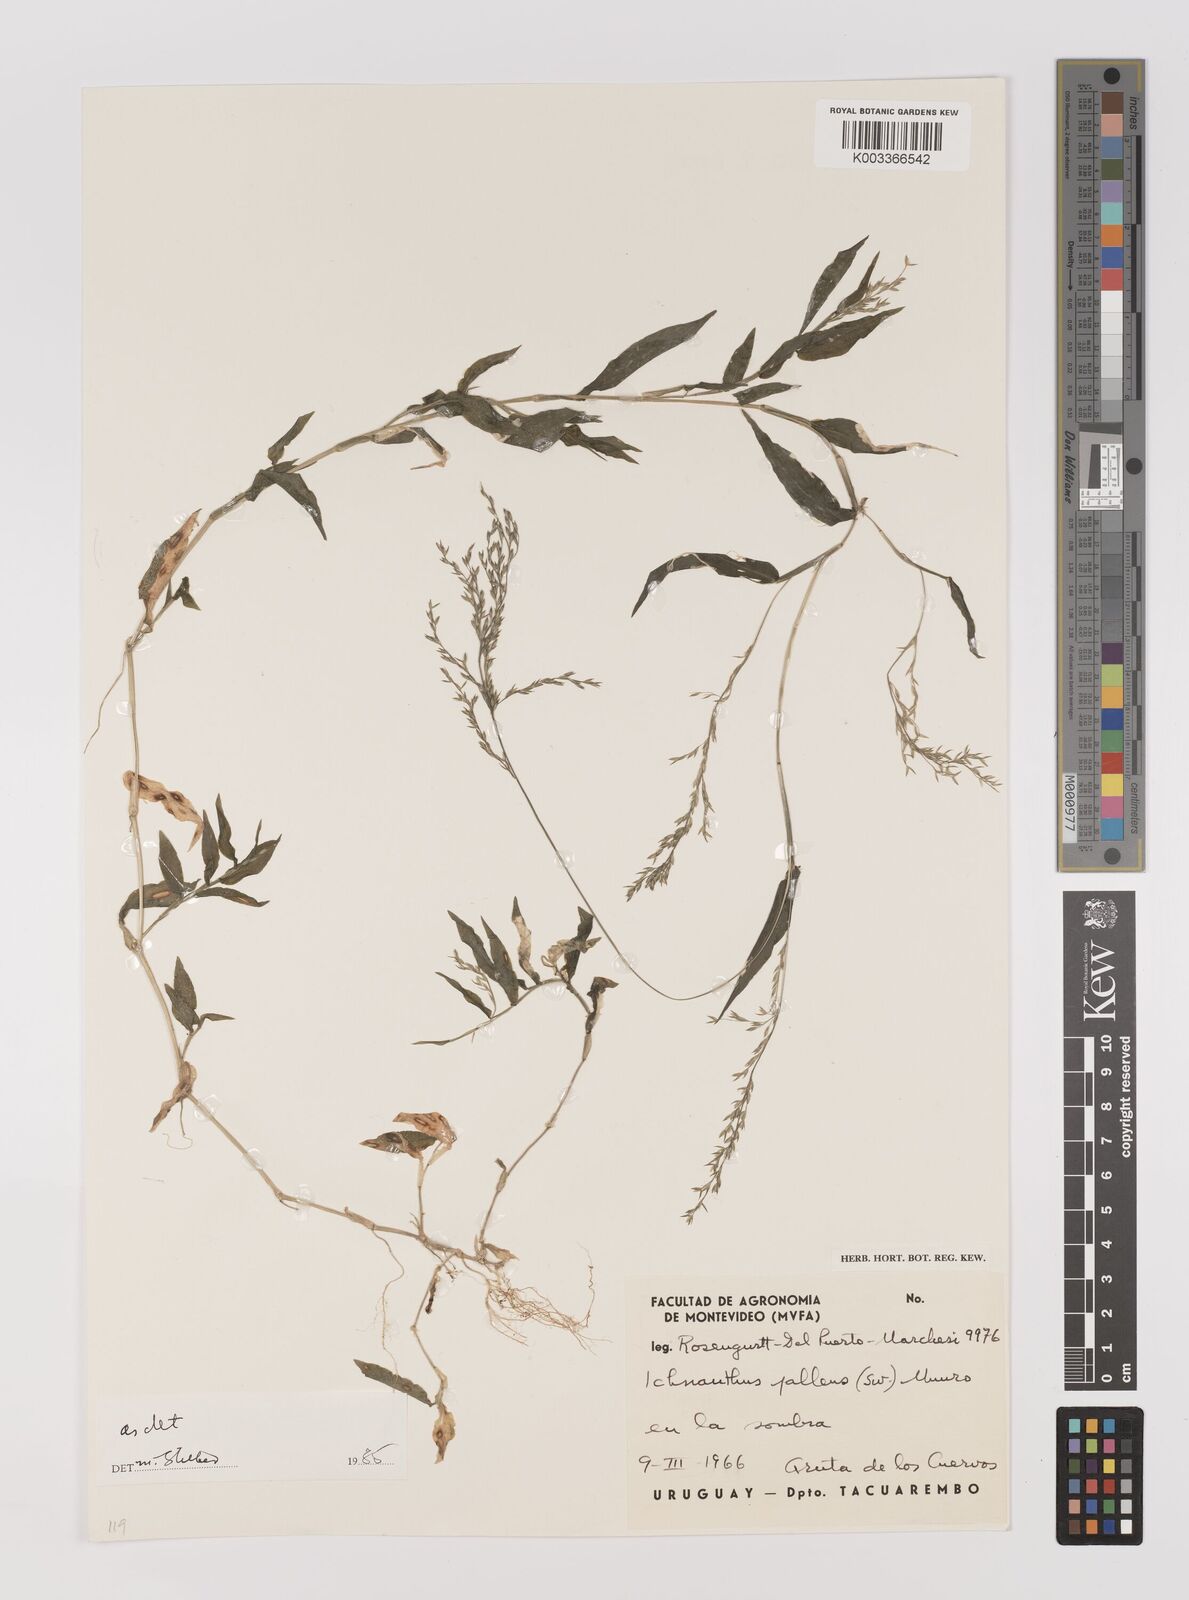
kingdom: Plantae
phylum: Tracheophyta
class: Liliopsida
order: Poales
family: Poaceae
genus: Ichnanthus
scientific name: Ichnanthus pallens
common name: Water grass
